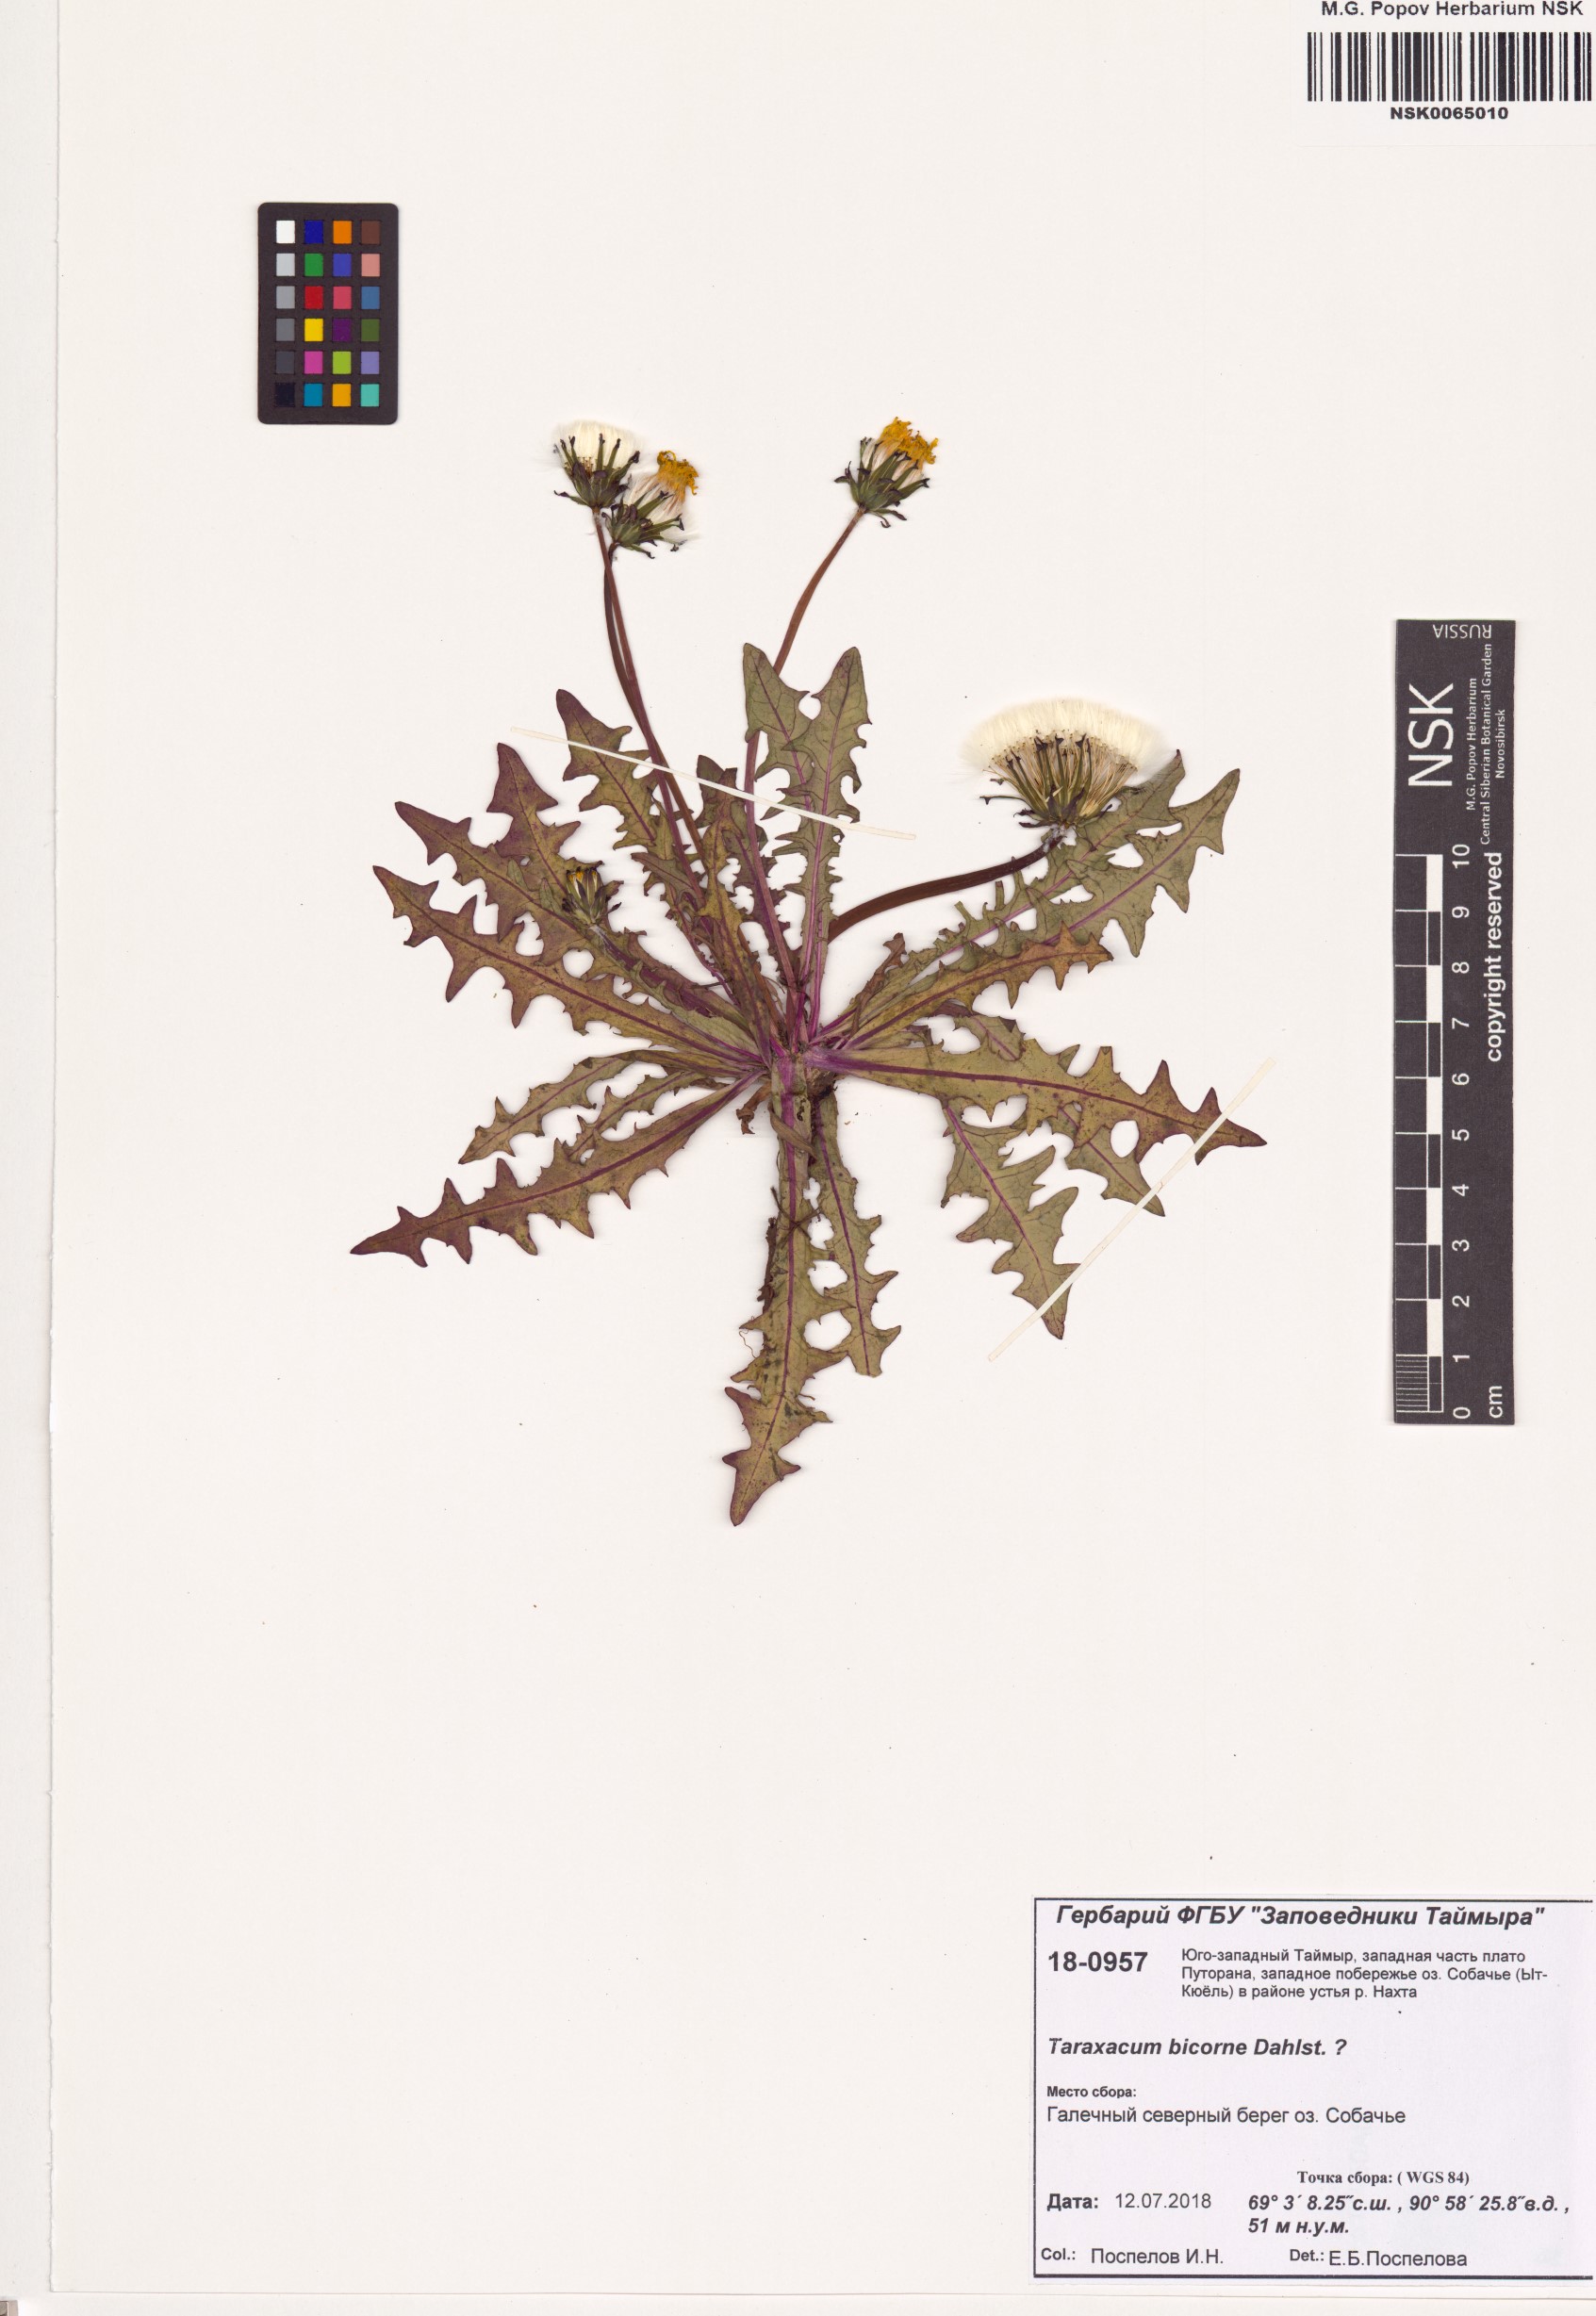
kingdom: Plantae
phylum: Tracheophyta
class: Magnoliopsida
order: Asterales
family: Asteraceae
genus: Taraxacum
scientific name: Taraxacum bicorne
